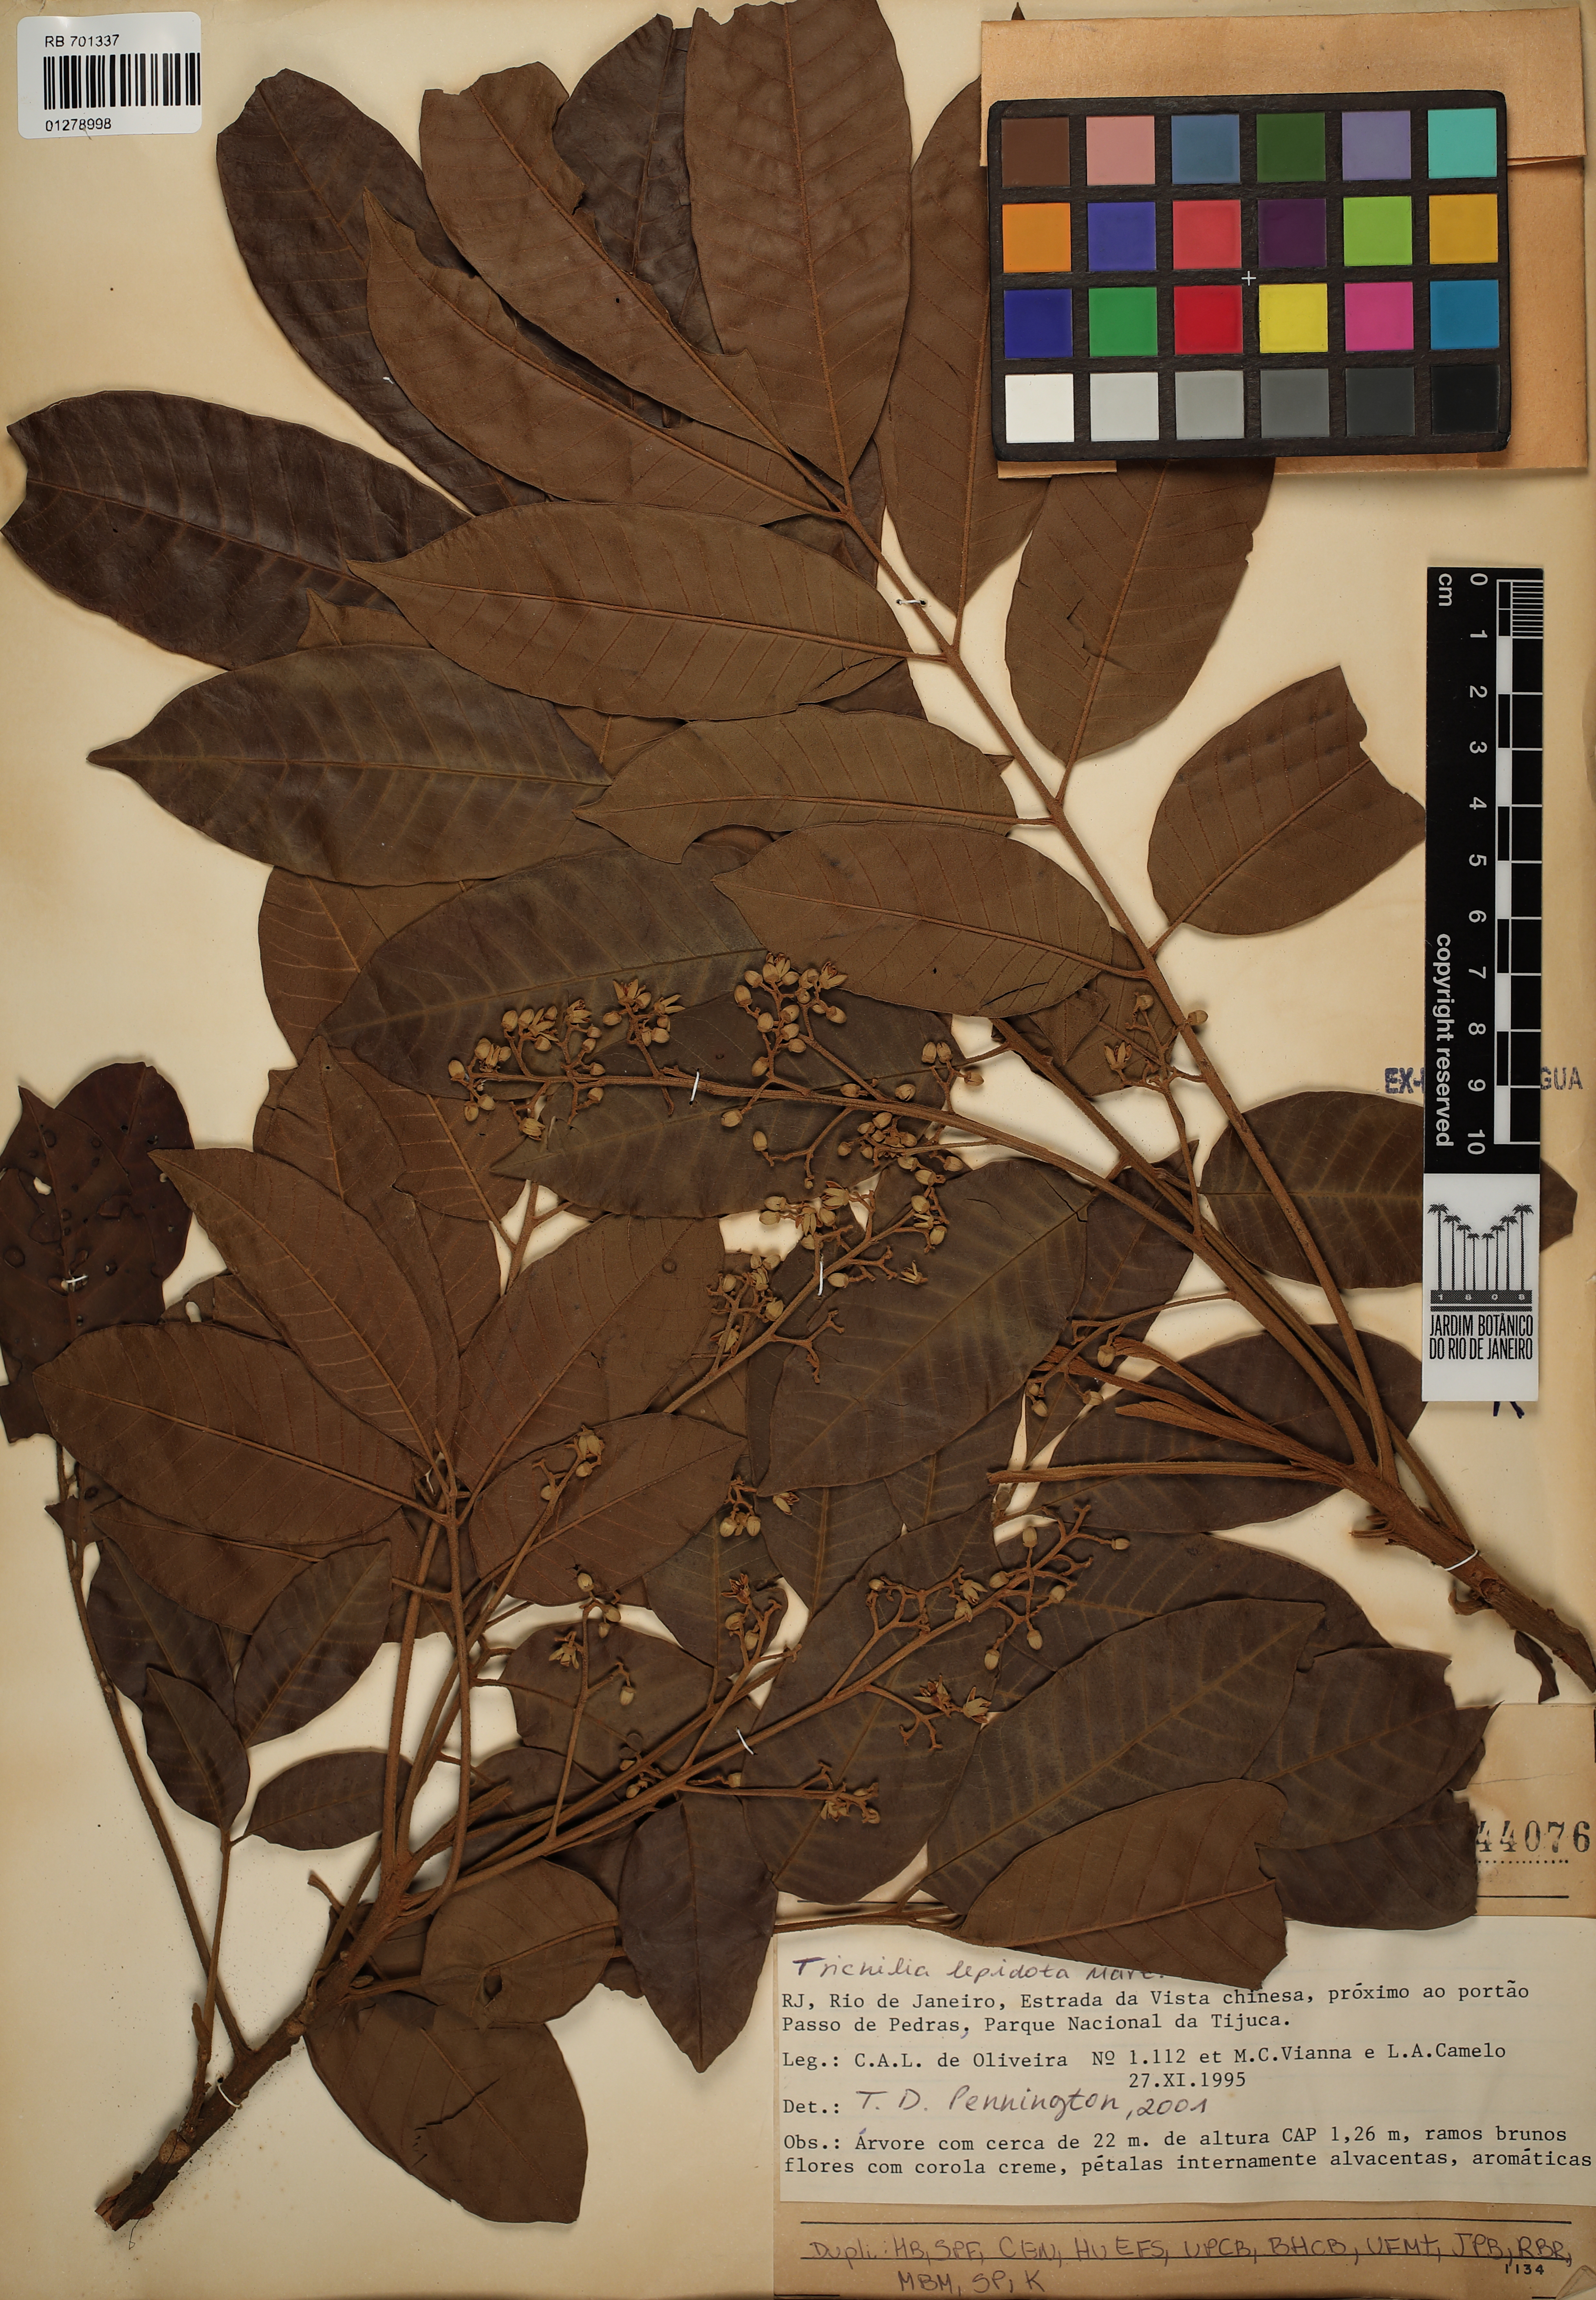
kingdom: Plantae
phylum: Tracheophyta
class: Magnoliopsida
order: Sapindales
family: Meliaceae
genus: Trichilia
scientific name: Trichilia lepidota
